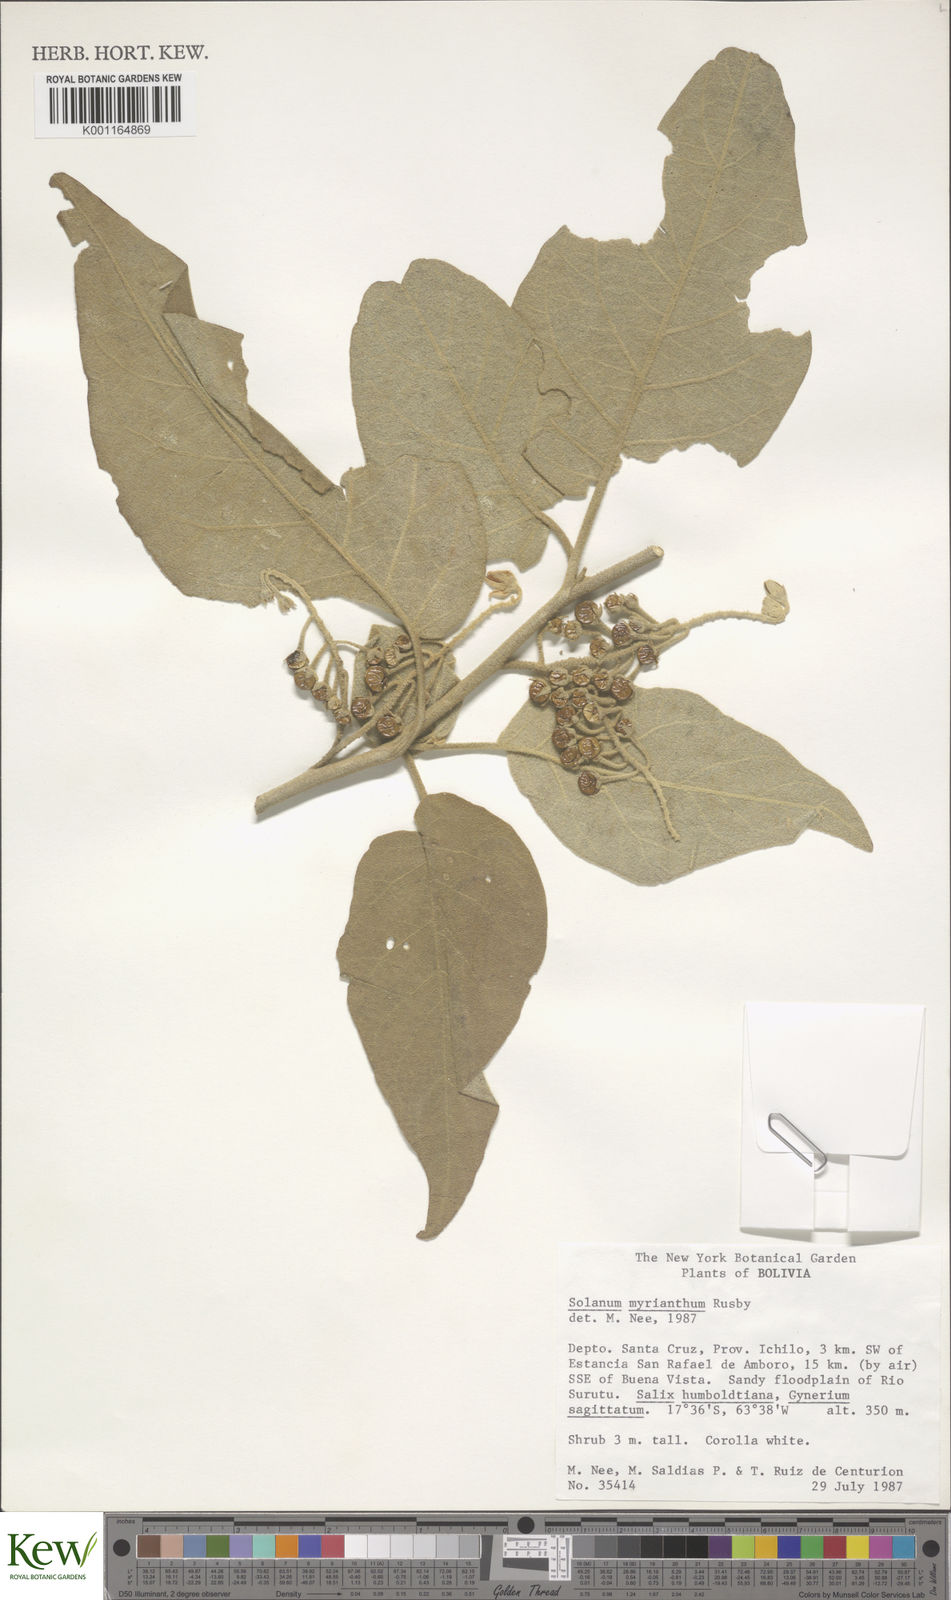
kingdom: Plantae
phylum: Tracheophyta
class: Magnoliopsida
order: Solanales
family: Solanaceae
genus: Solanum
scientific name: Solanum myriacanthum
